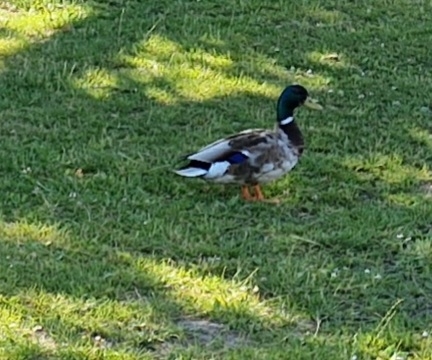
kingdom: Animalia
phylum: Chordata
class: Aves
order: Anseriformes
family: Anatidae
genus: Anas
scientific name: Anas platyrhynchos
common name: Gråand
